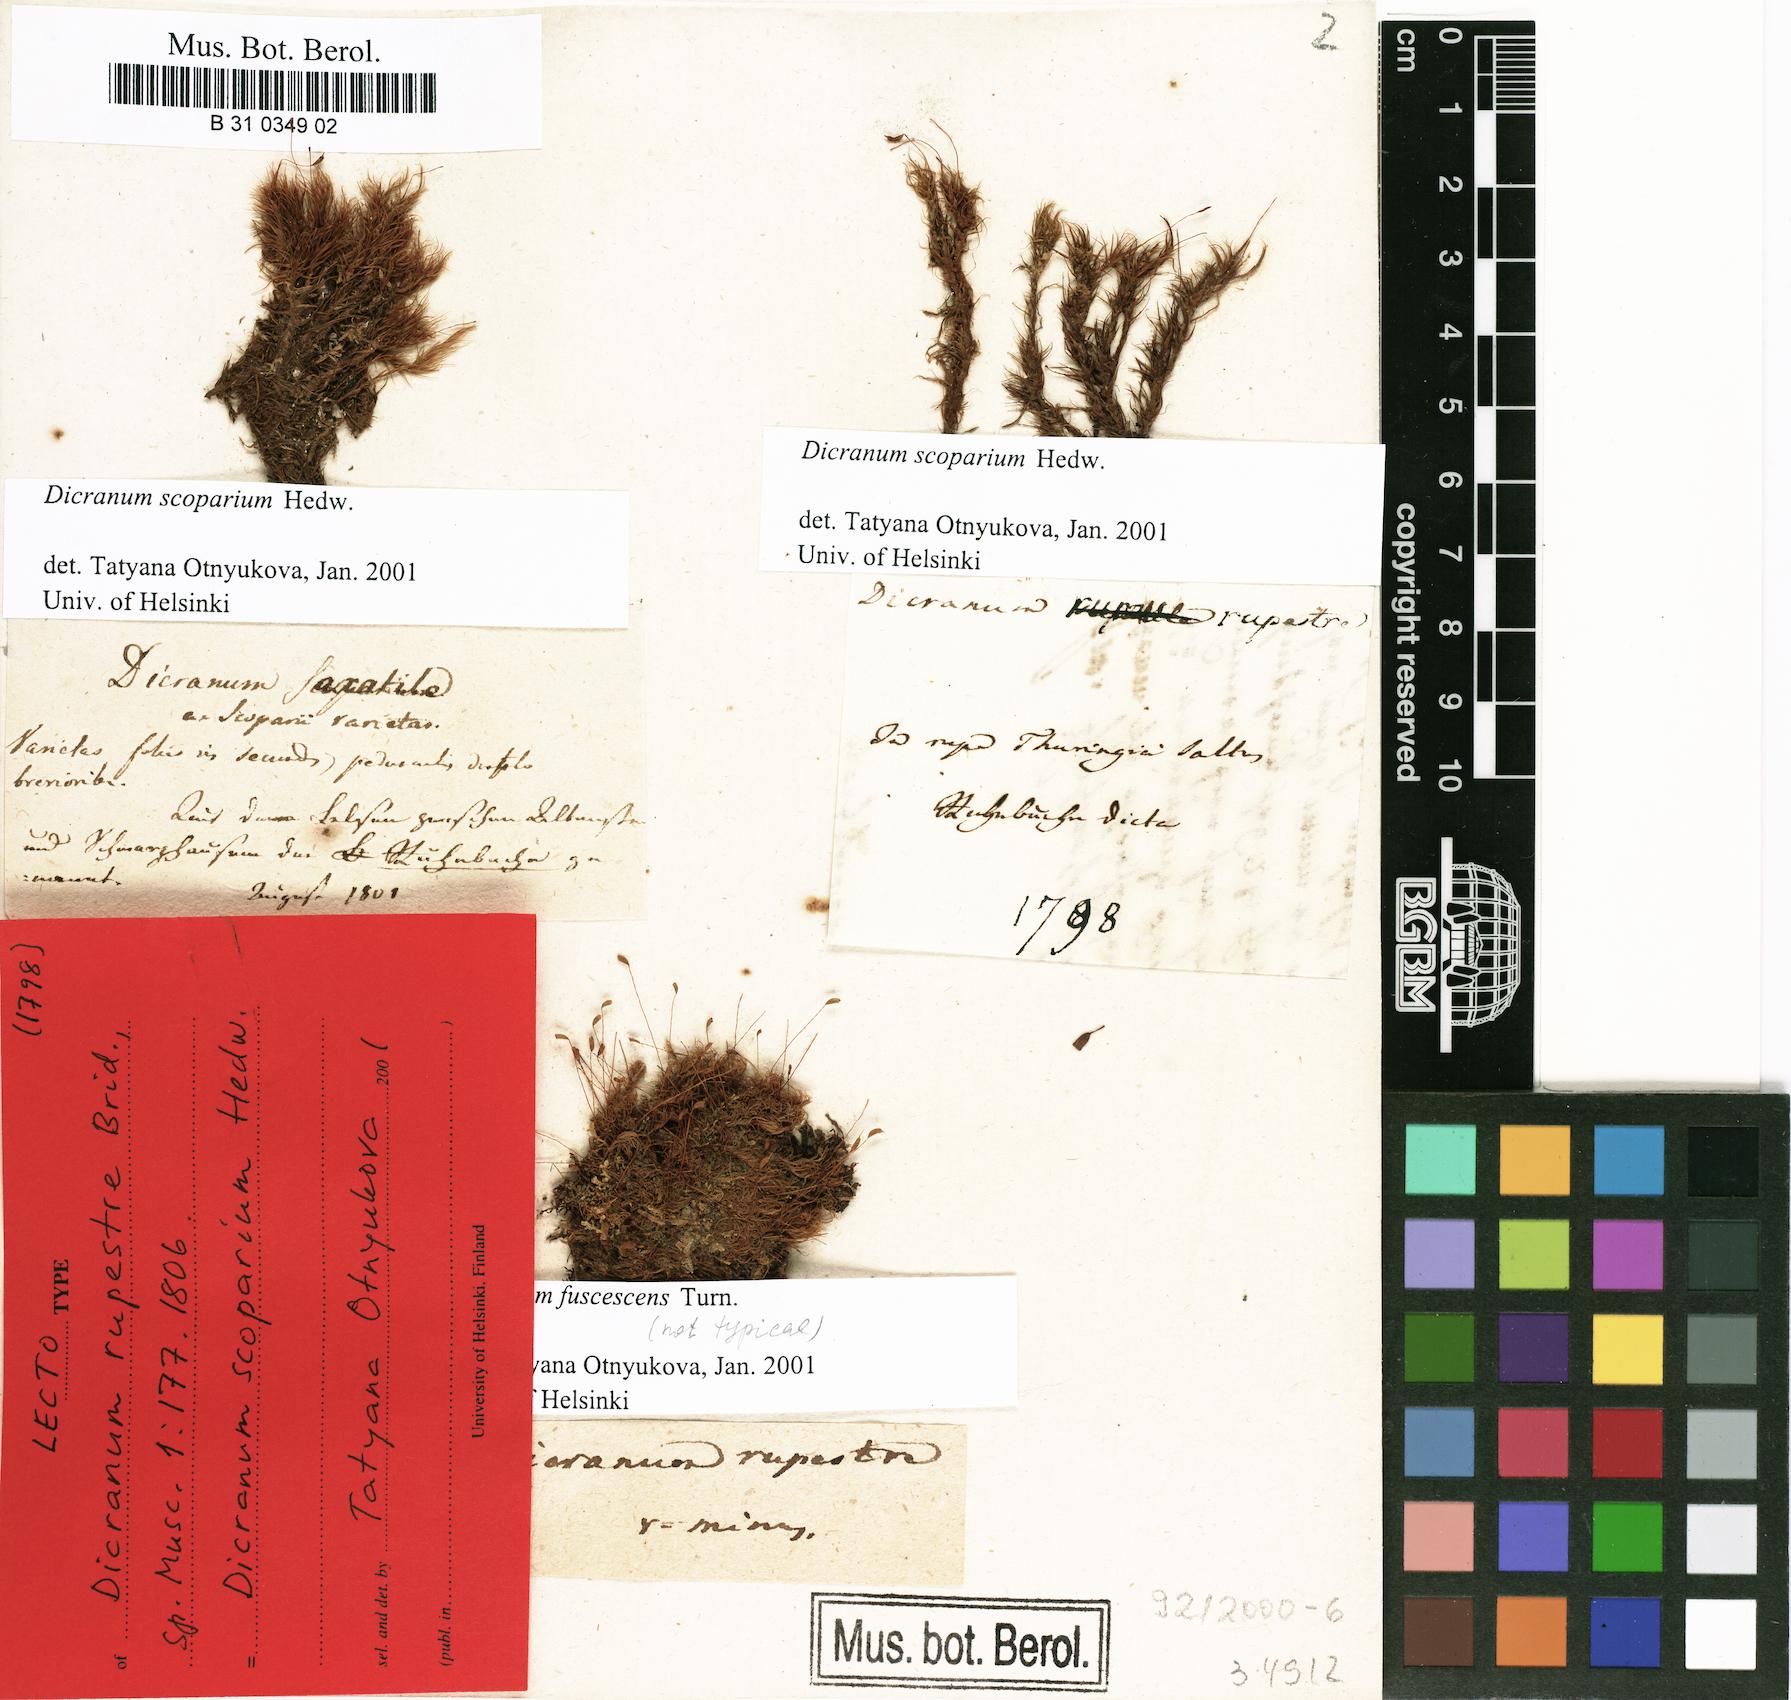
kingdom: Plantae
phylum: Bryophyta
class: Bryopsida
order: Dicranales
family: Dicranaceae
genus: Dicranum
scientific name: Dicranum fuscescens
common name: Curly heron's-bill moss
